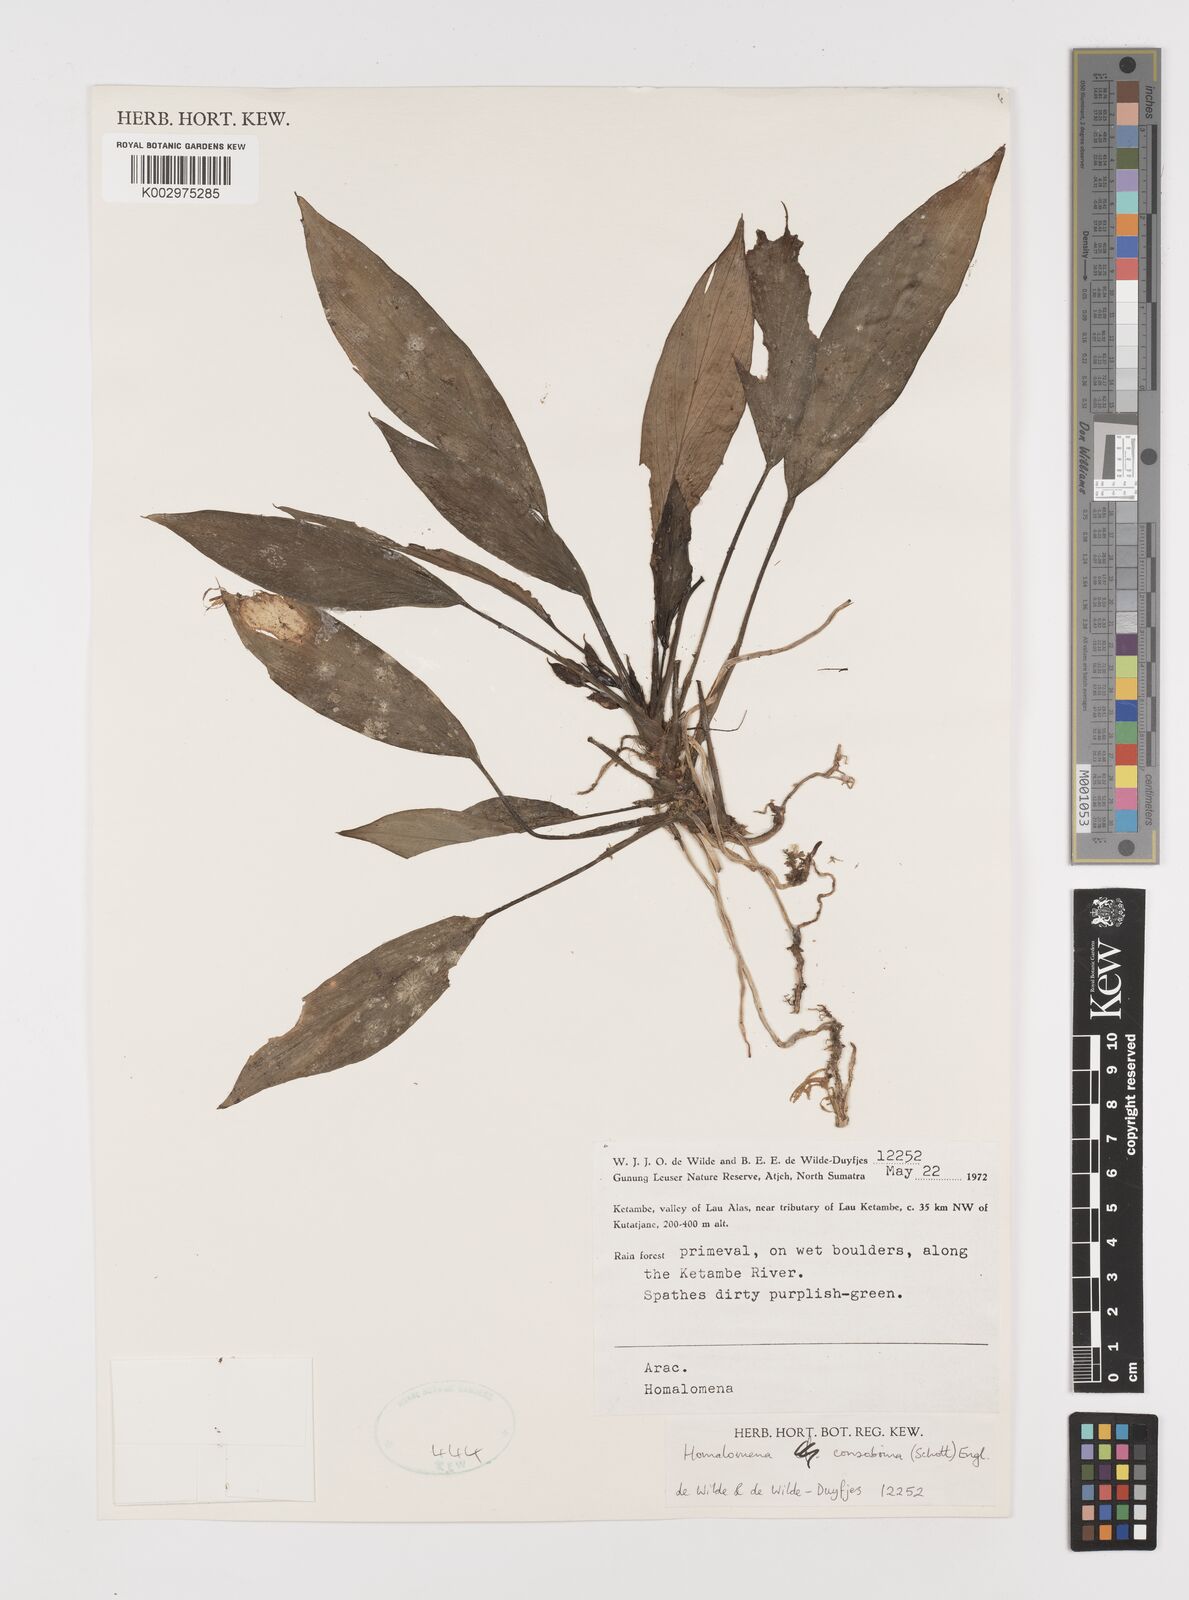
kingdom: Plantae
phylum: Tracheophyta
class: Liliopsida
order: Alismatales
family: Araceae
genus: Homalomena
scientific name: Homalomena consobrina
